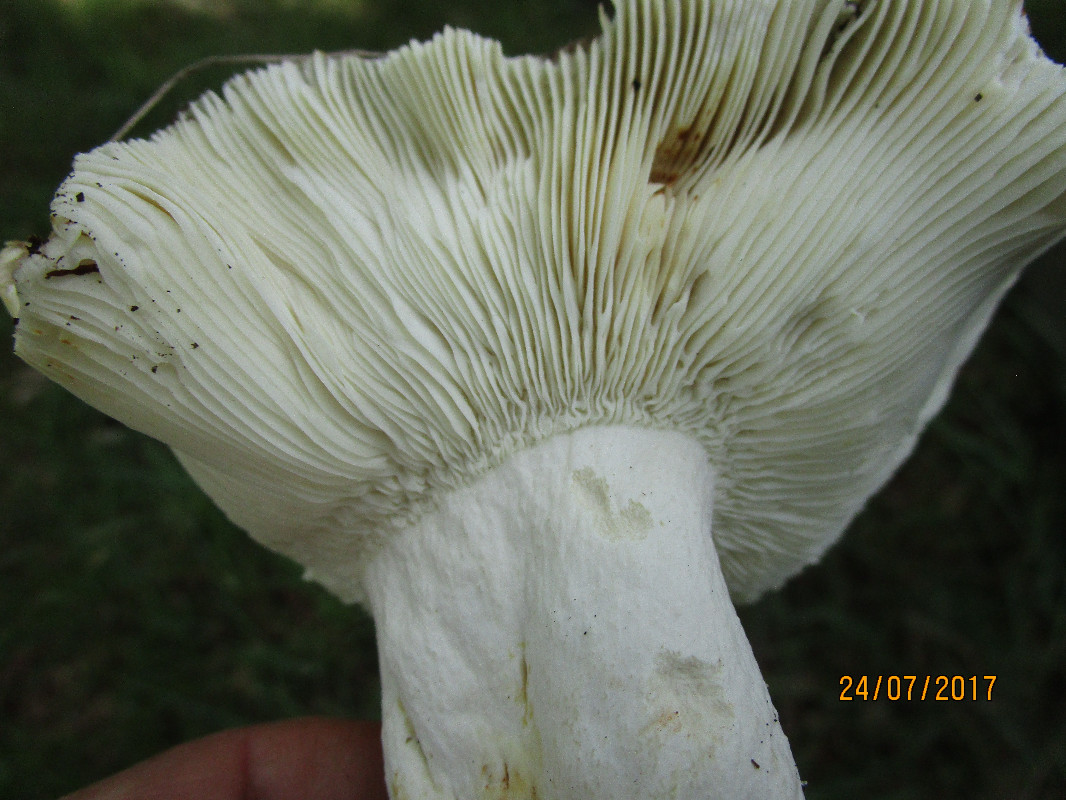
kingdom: Fungi
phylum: Basidiomycota
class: Agaricomycetes
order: Russulales
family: Russulaceae
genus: Russula
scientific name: Russula heterophylla
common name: gaffelbladet skørhat
